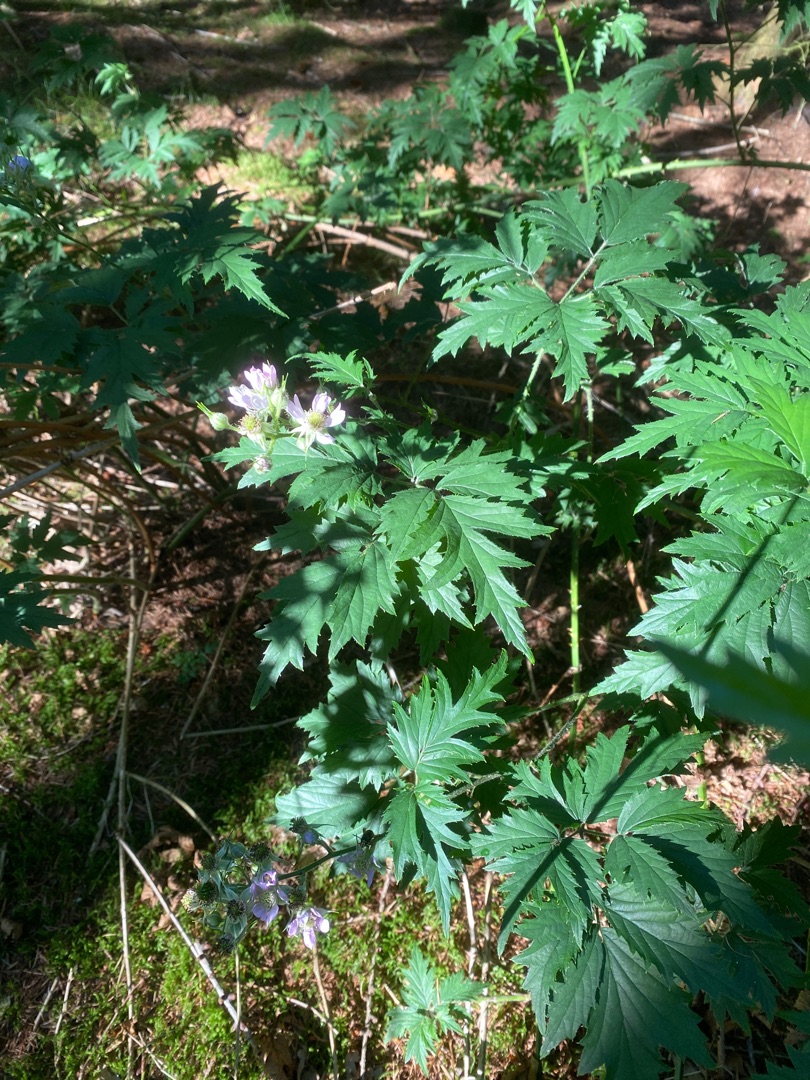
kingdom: Plantae
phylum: Tracheophyta
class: Magnoliopsida
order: Rosales
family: Rosaceae
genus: Rubus
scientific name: Rubus laciniatus
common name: Fliget brombær
